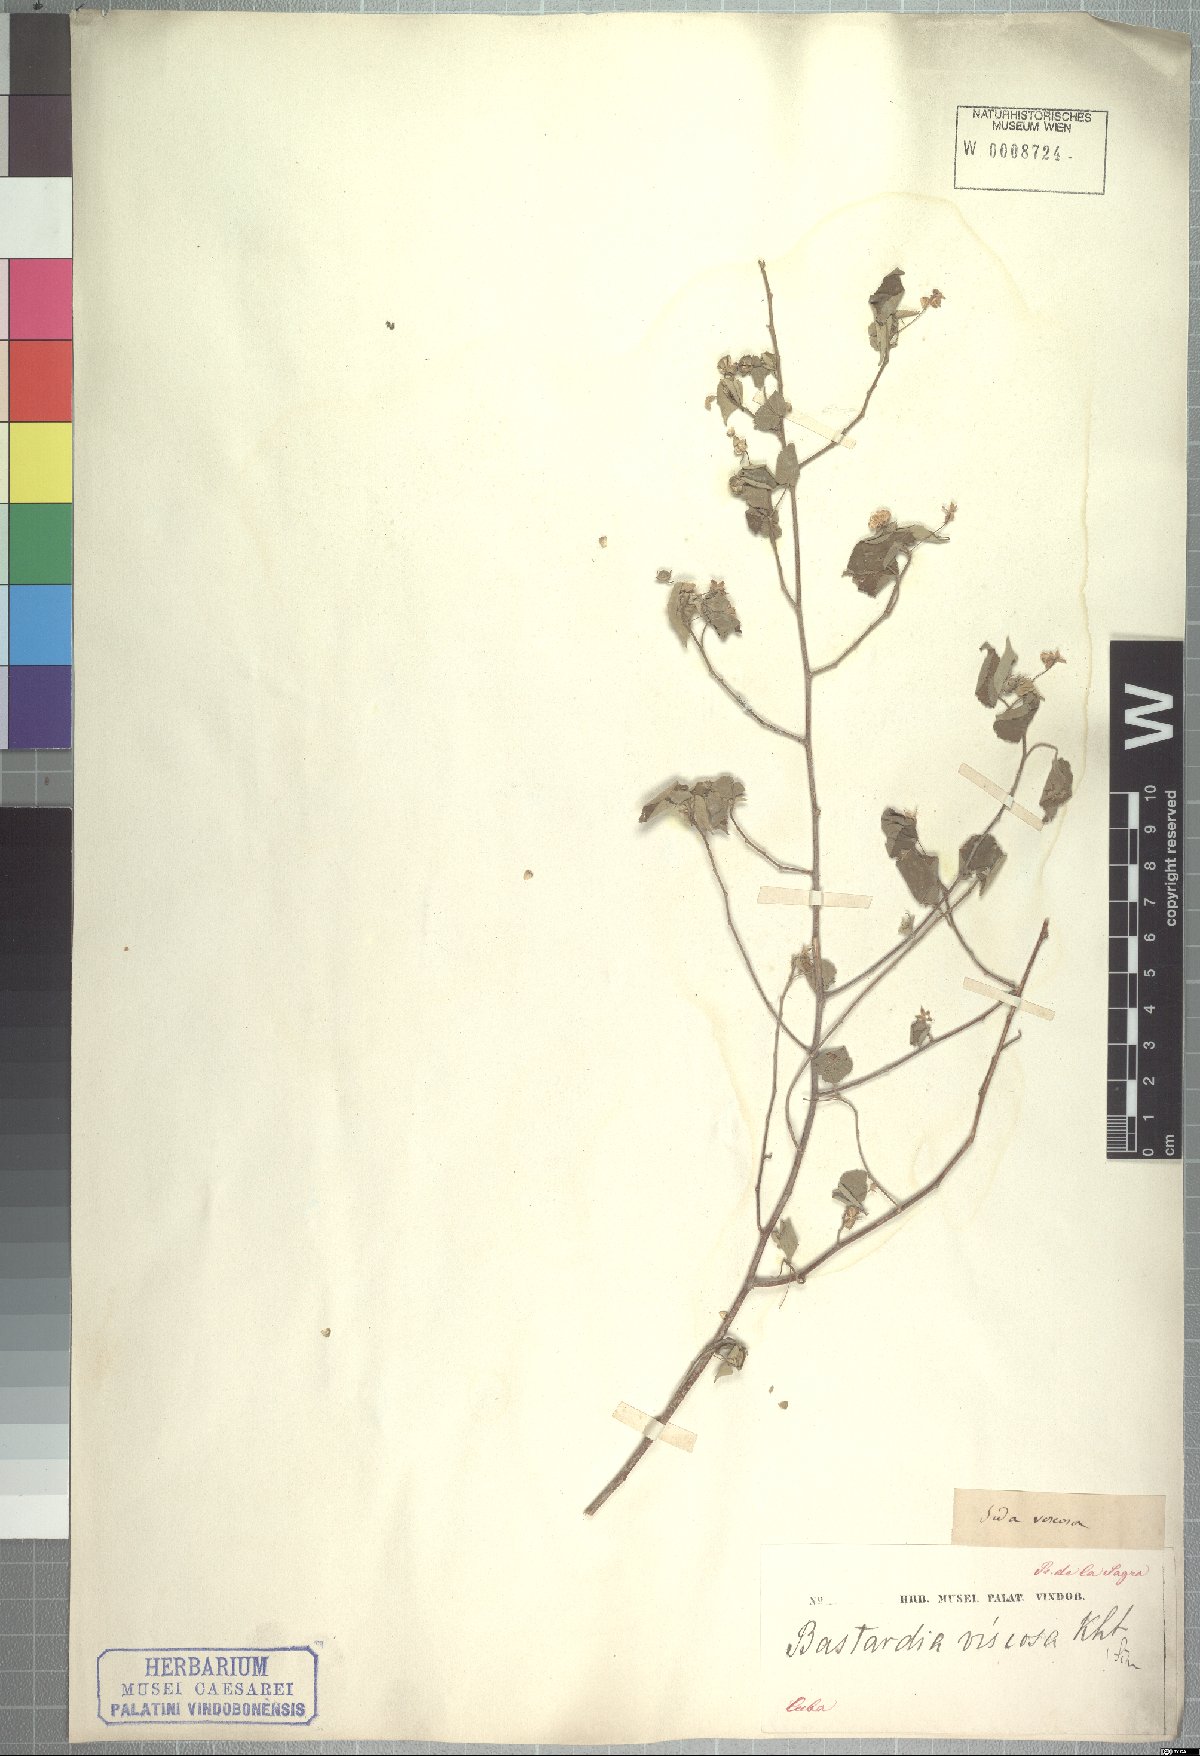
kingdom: Plantae
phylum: Tracheophyta
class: Magnoliopsida
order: Malvales
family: Malvaceae
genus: Abutilon
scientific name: Abutilon viscosum
